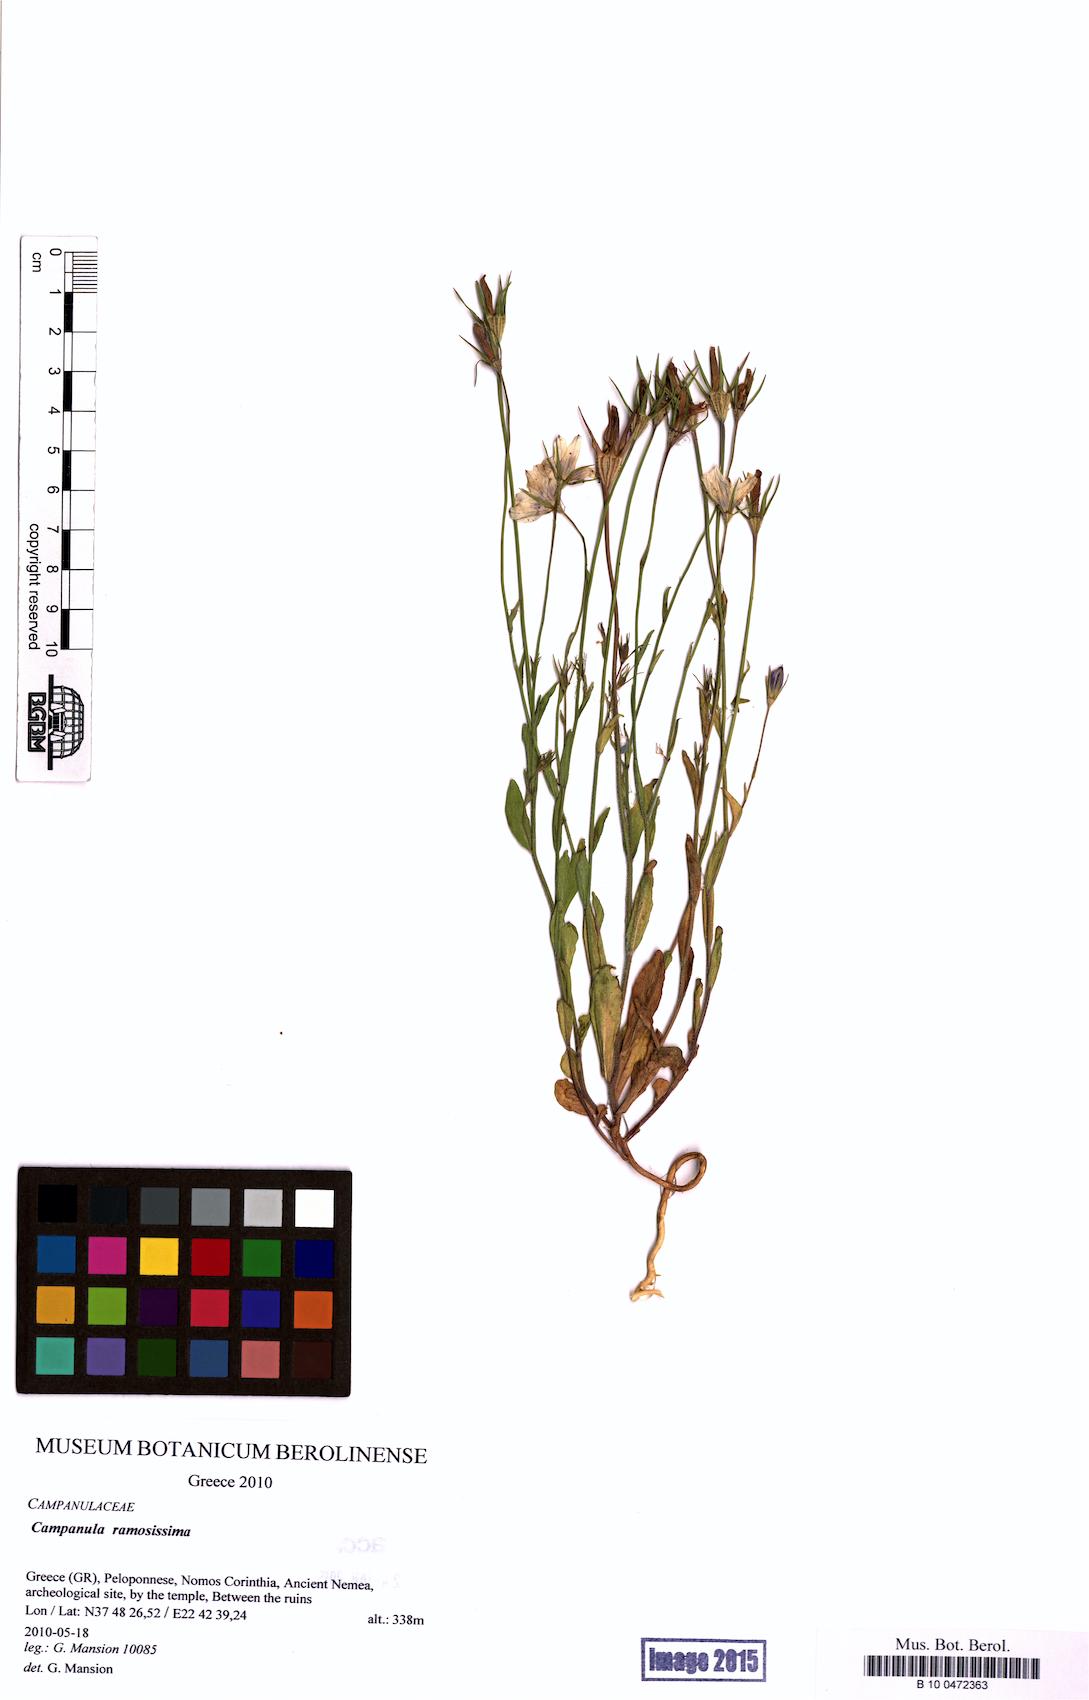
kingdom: Plantae
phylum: Tracheophyta
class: Magnoliopsida
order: Asterales
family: Campanulaceae
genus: Campanula
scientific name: Campanula ramosissima
